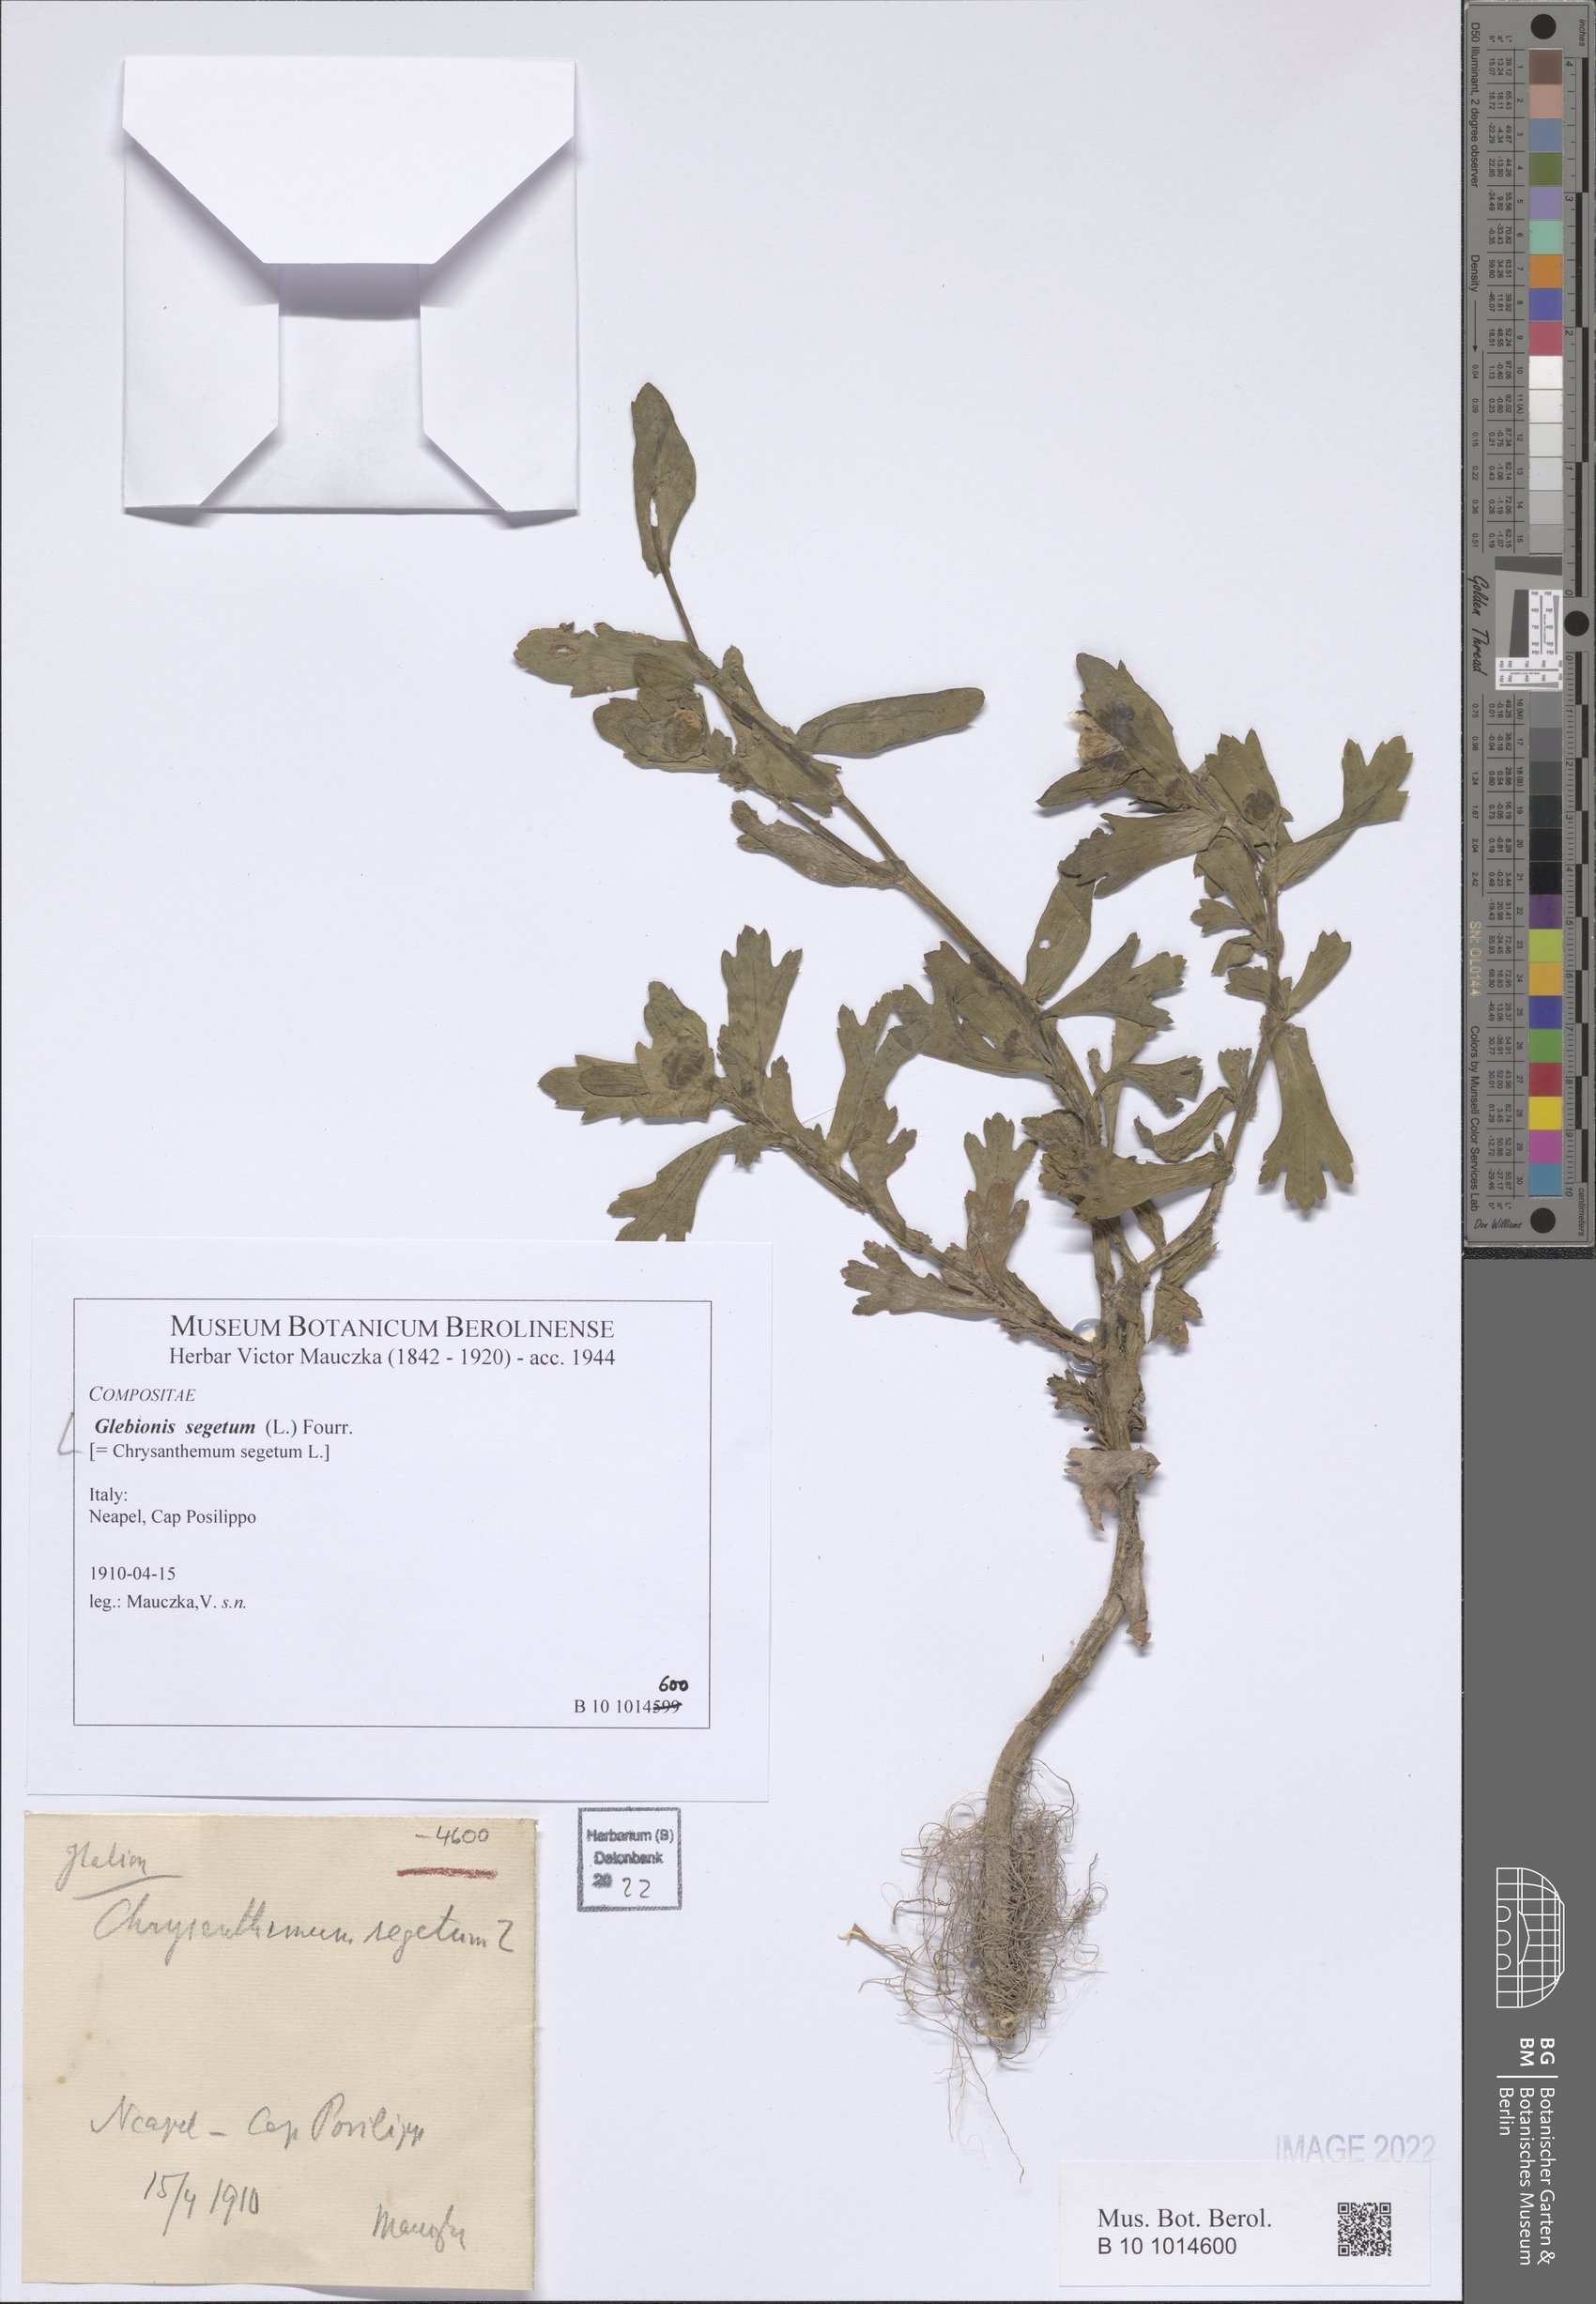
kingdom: Plantae
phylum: Tracheophyta
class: Magnoliopsida
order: Asterales
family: Asteraceae
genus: Glebionis
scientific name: Glebionis segetum
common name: Corndaisy
